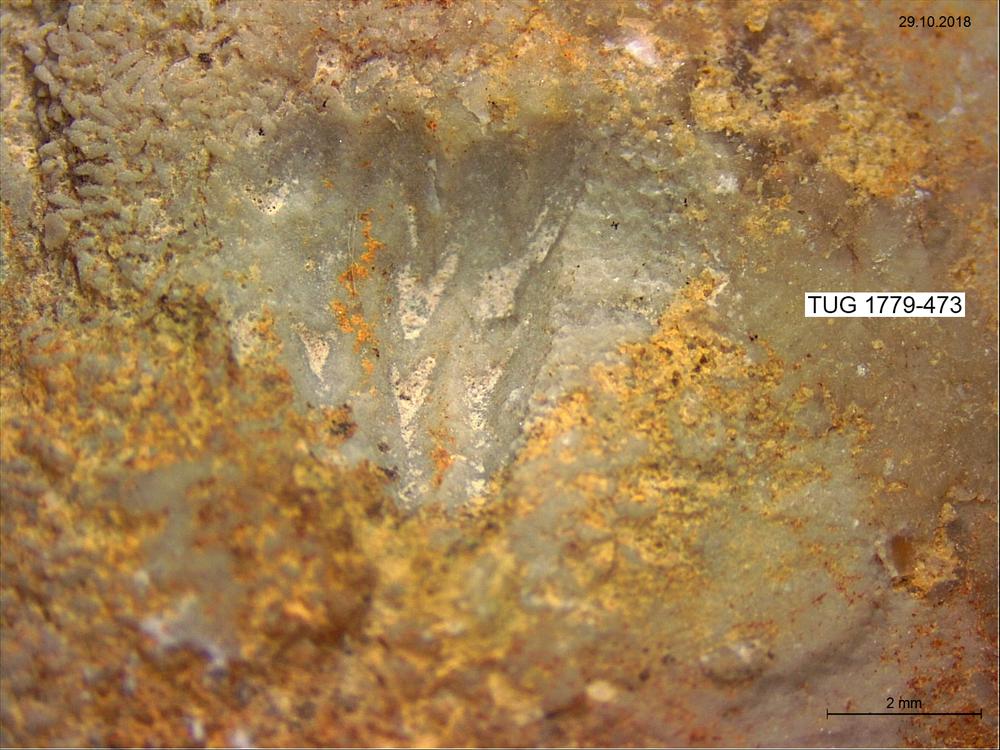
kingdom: Animalia
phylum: Brachiopoda
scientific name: Brachiopoda
